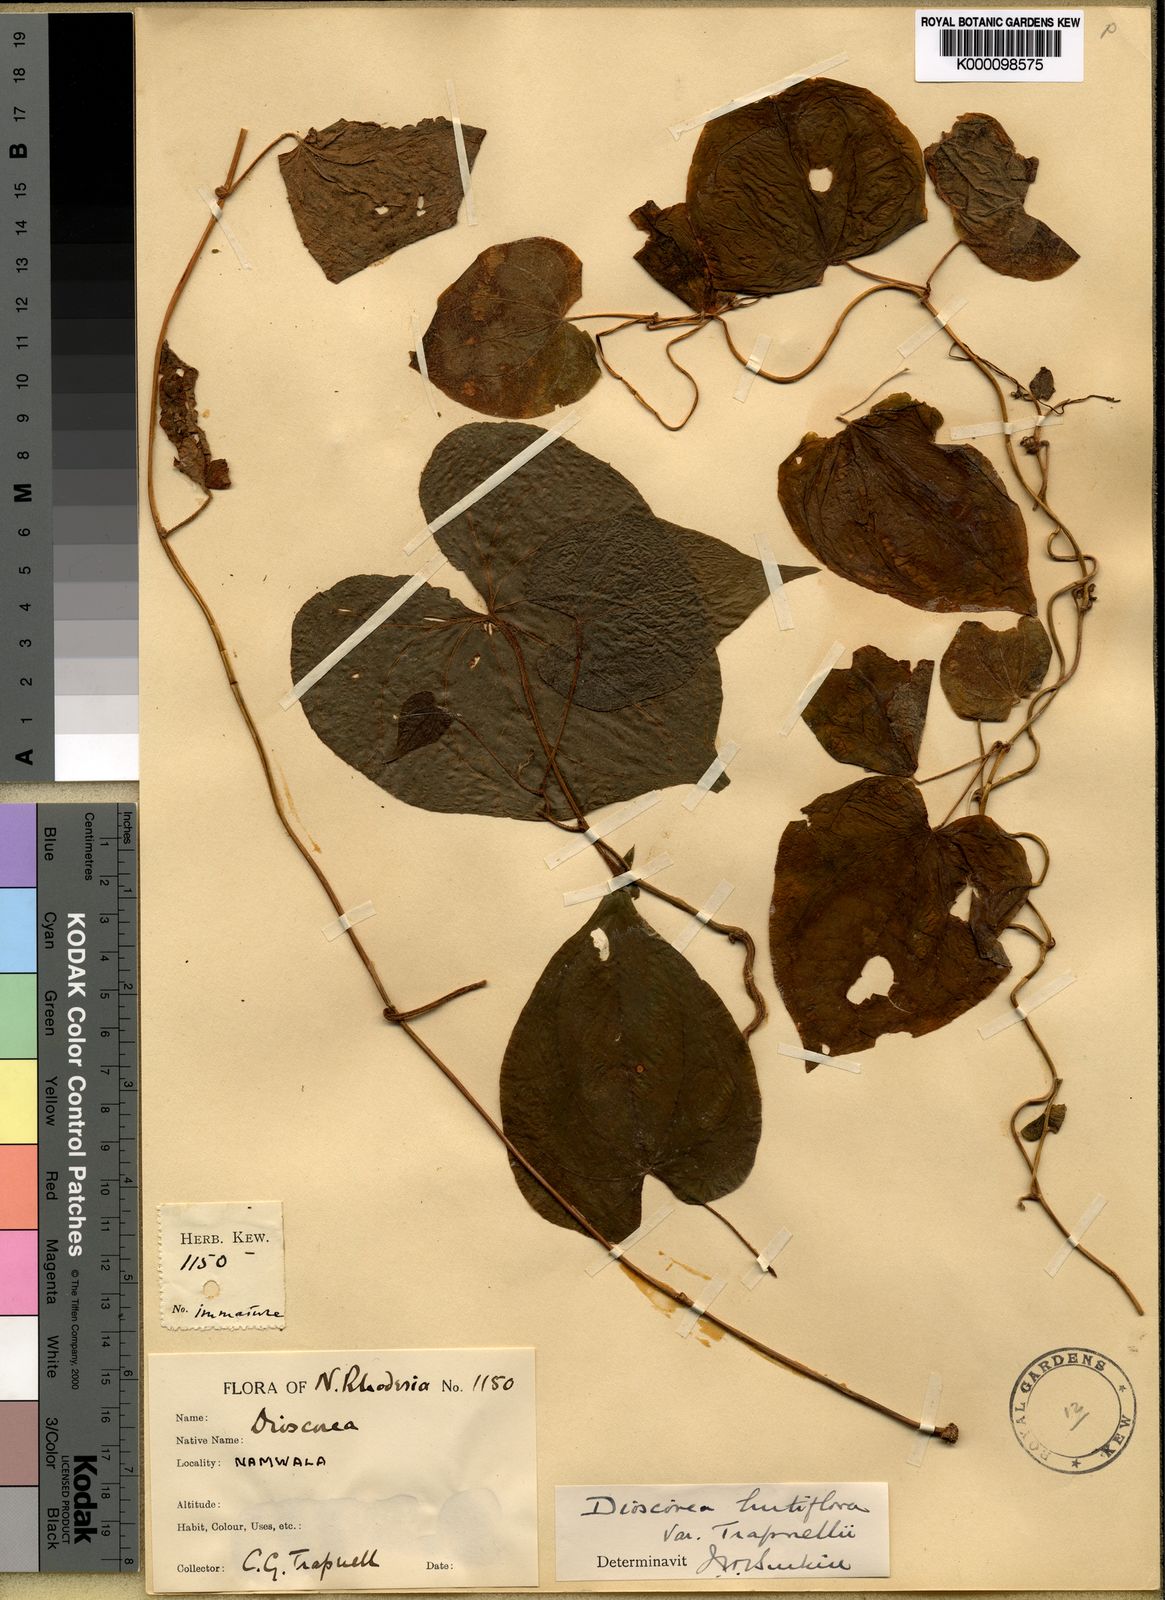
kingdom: Plantae
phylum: Tracheophyta
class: Liliopsida
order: Dioscoreales
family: Dioscoreaceae
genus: Dioscorea
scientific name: Dioscorea hirtiflora
